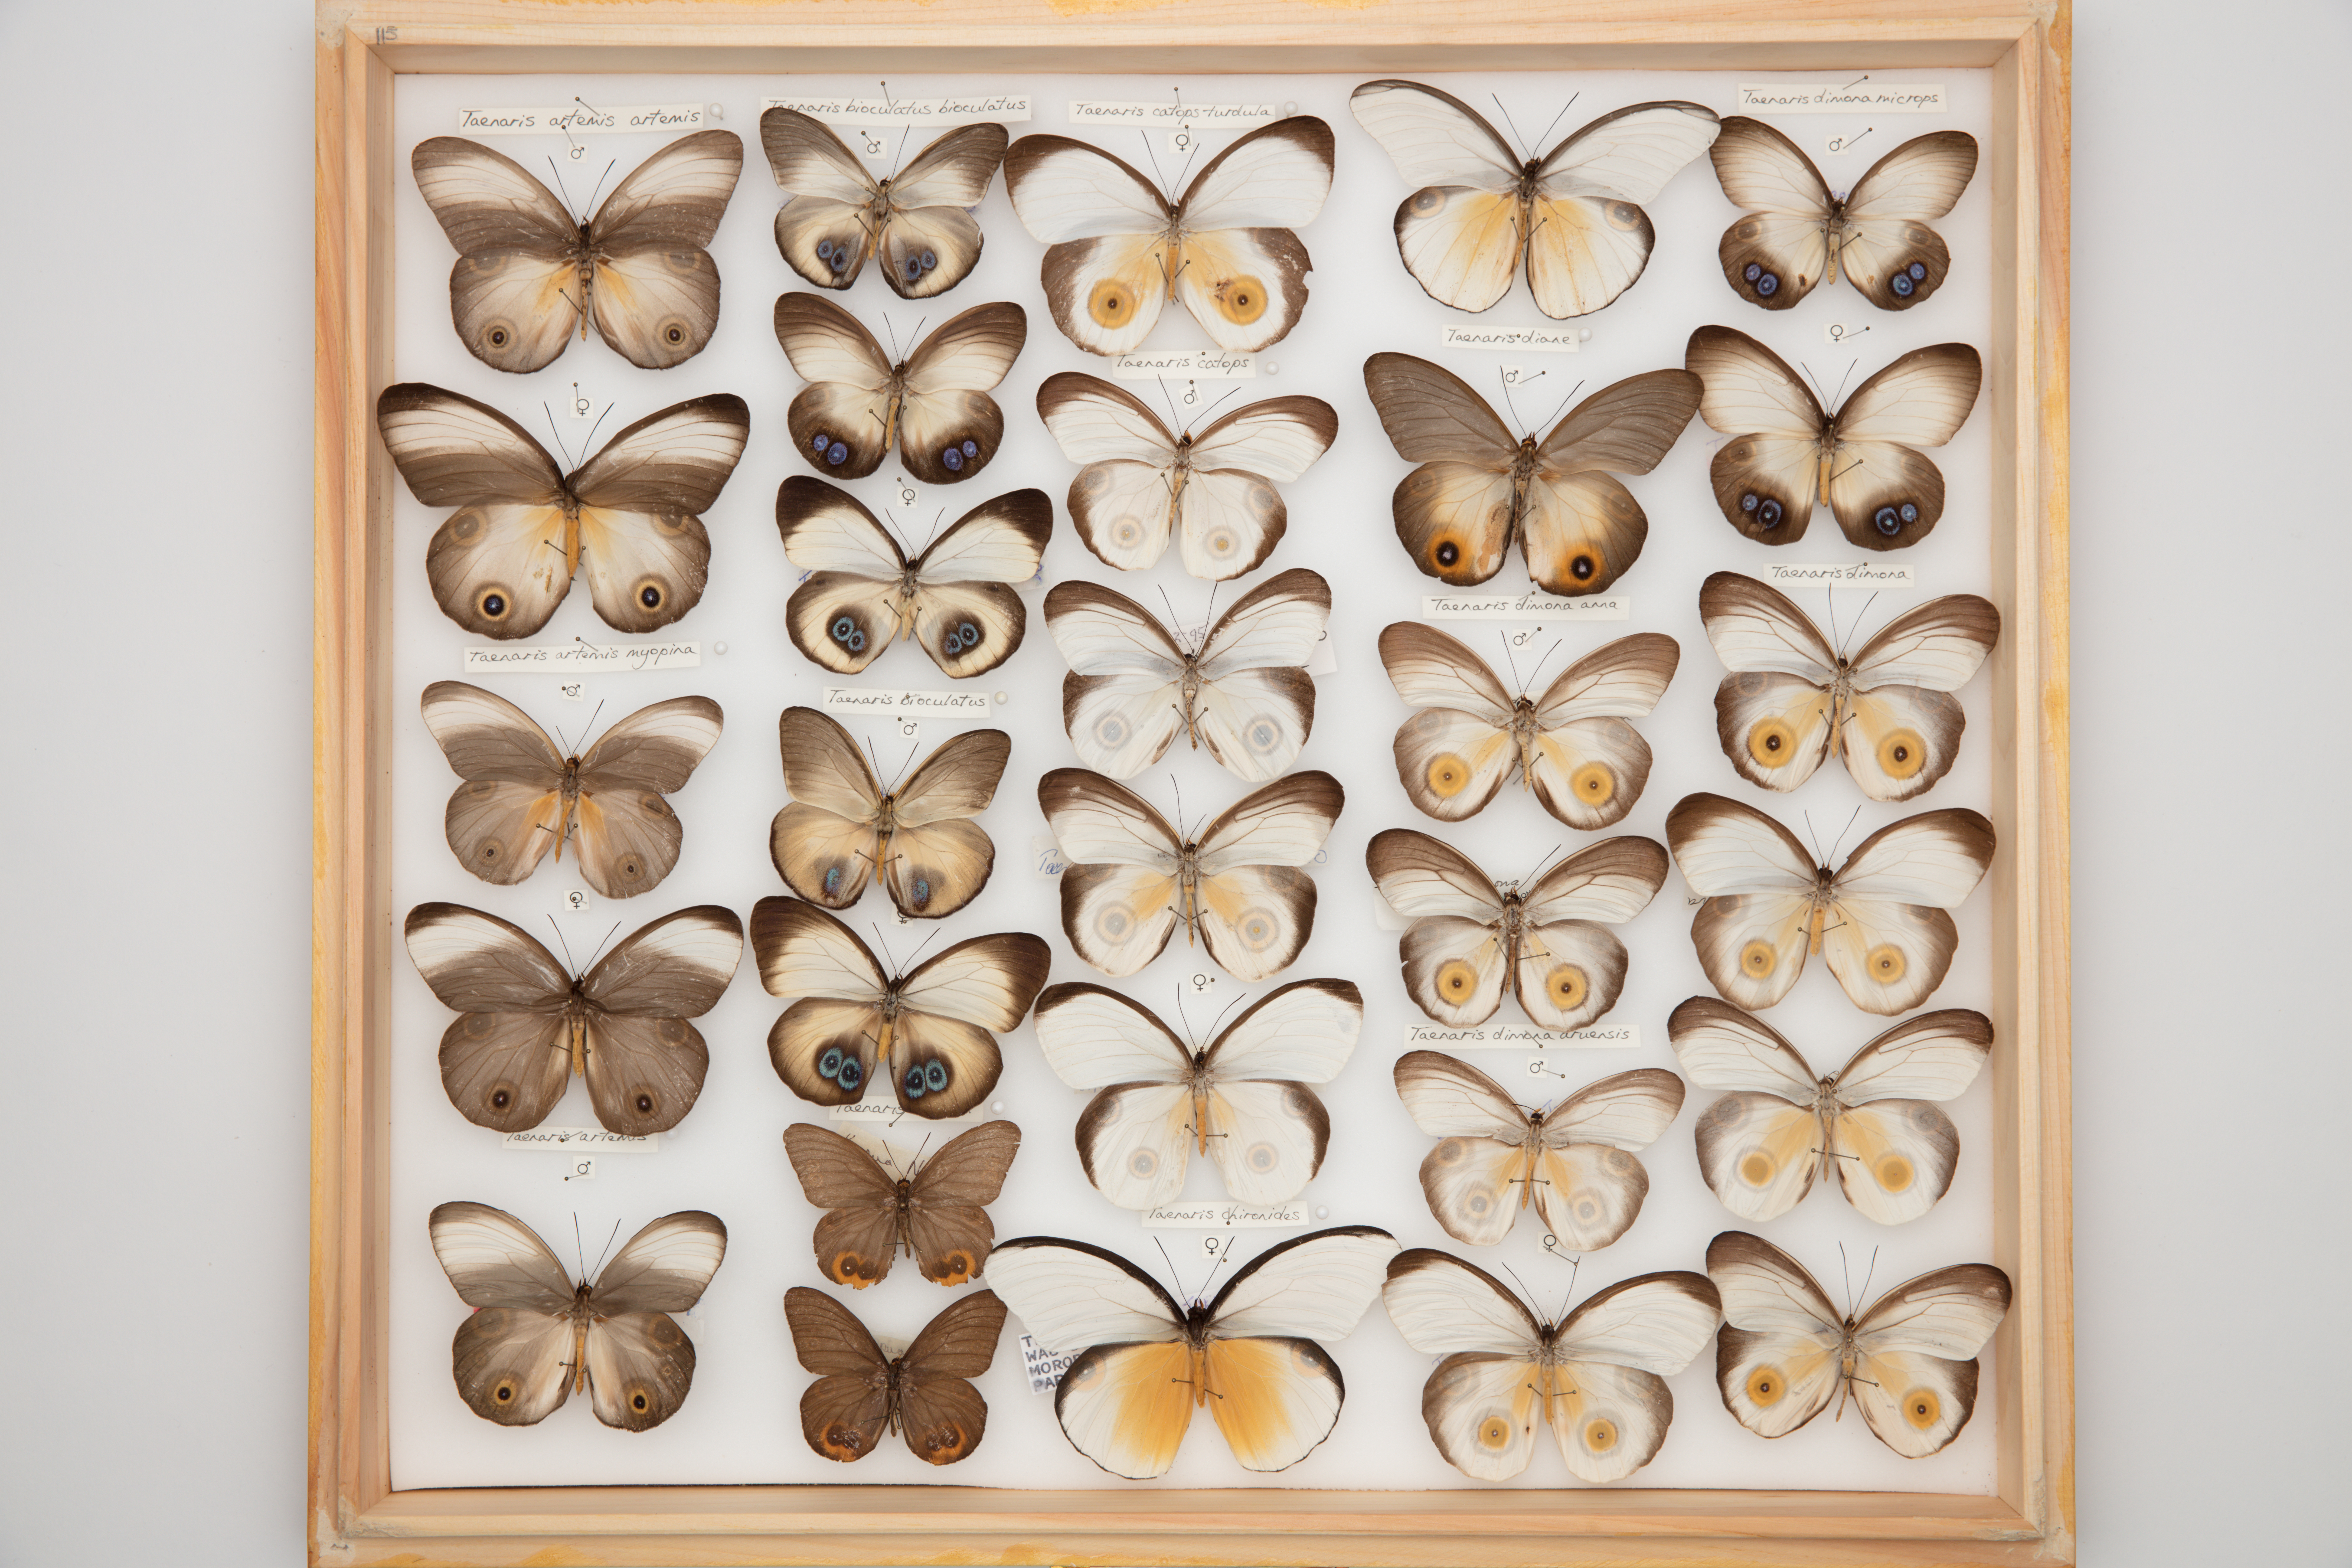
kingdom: Animalia
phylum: Arthropoda
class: Insecta
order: Lepidoptera
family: Nymphalidae
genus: Taenaris
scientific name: Taenaris catops
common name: Silky owl
